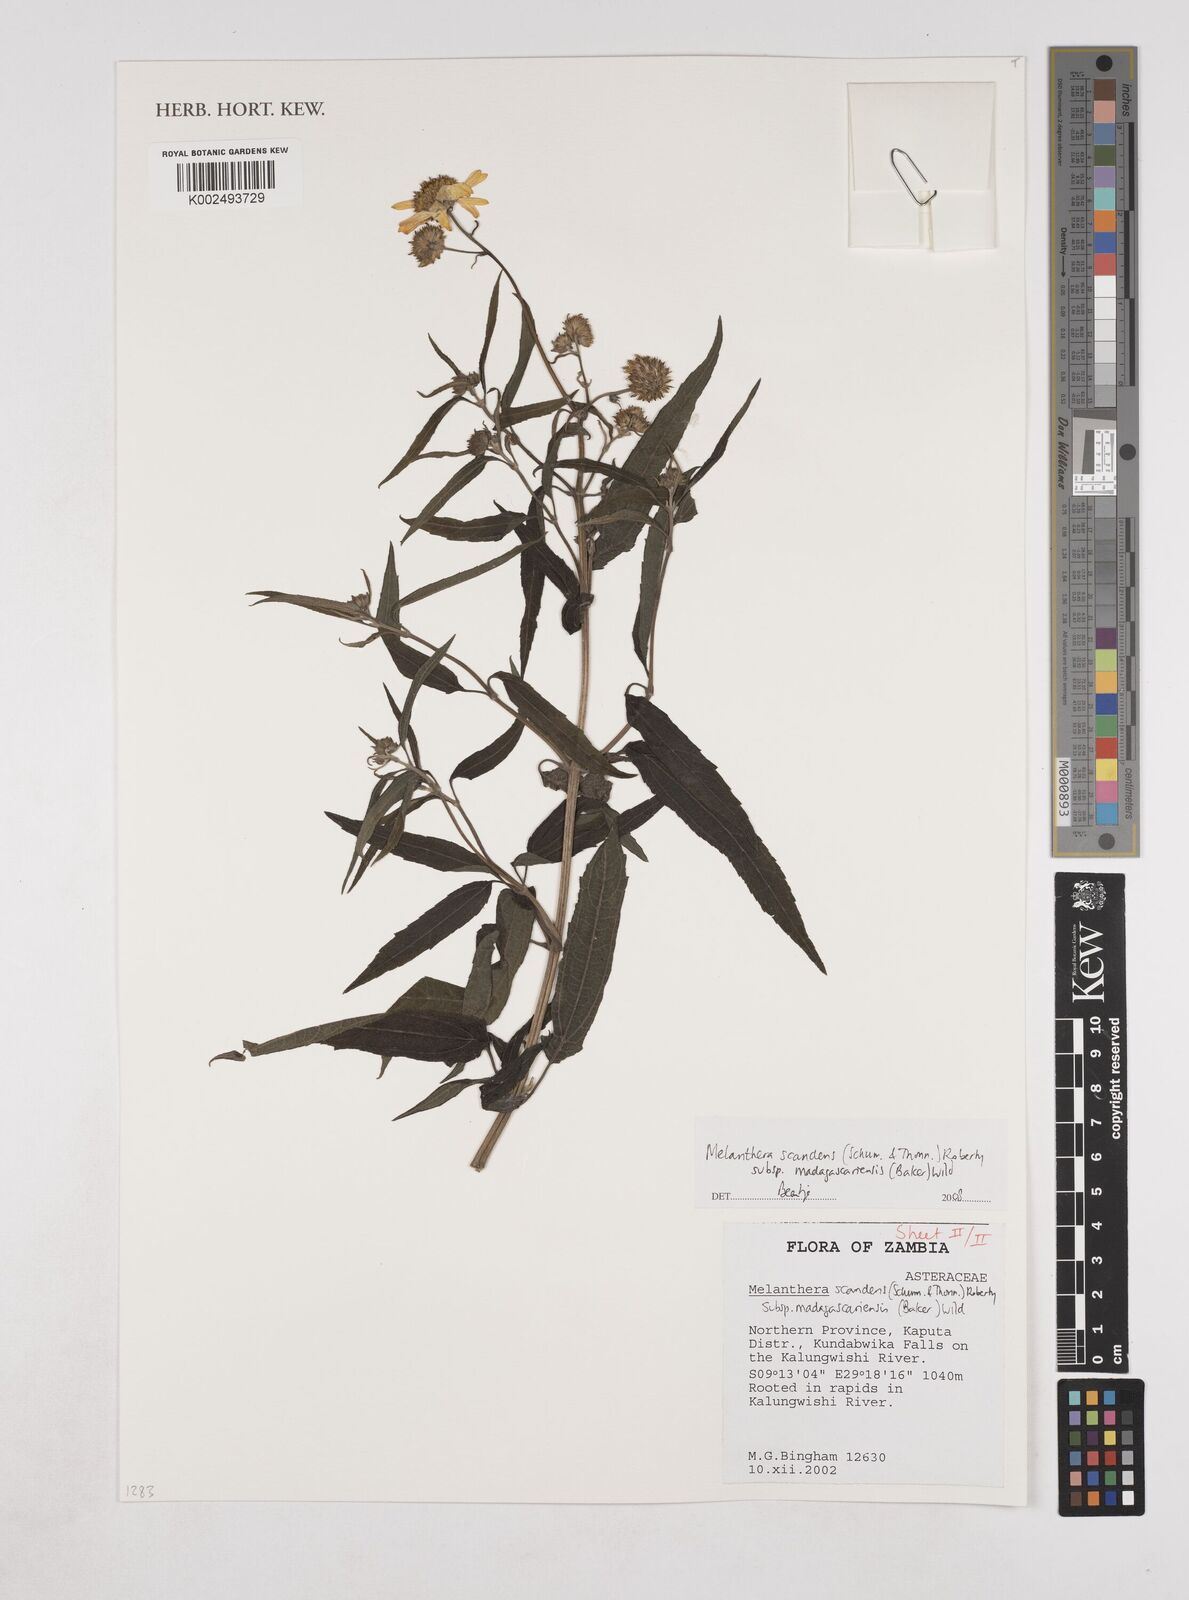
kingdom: Plantae
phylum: Tracheophyta
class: Magnoliopsida
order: Asterales
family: Asteraceae
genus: Lipotriche
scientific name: Lipotriche scandens
